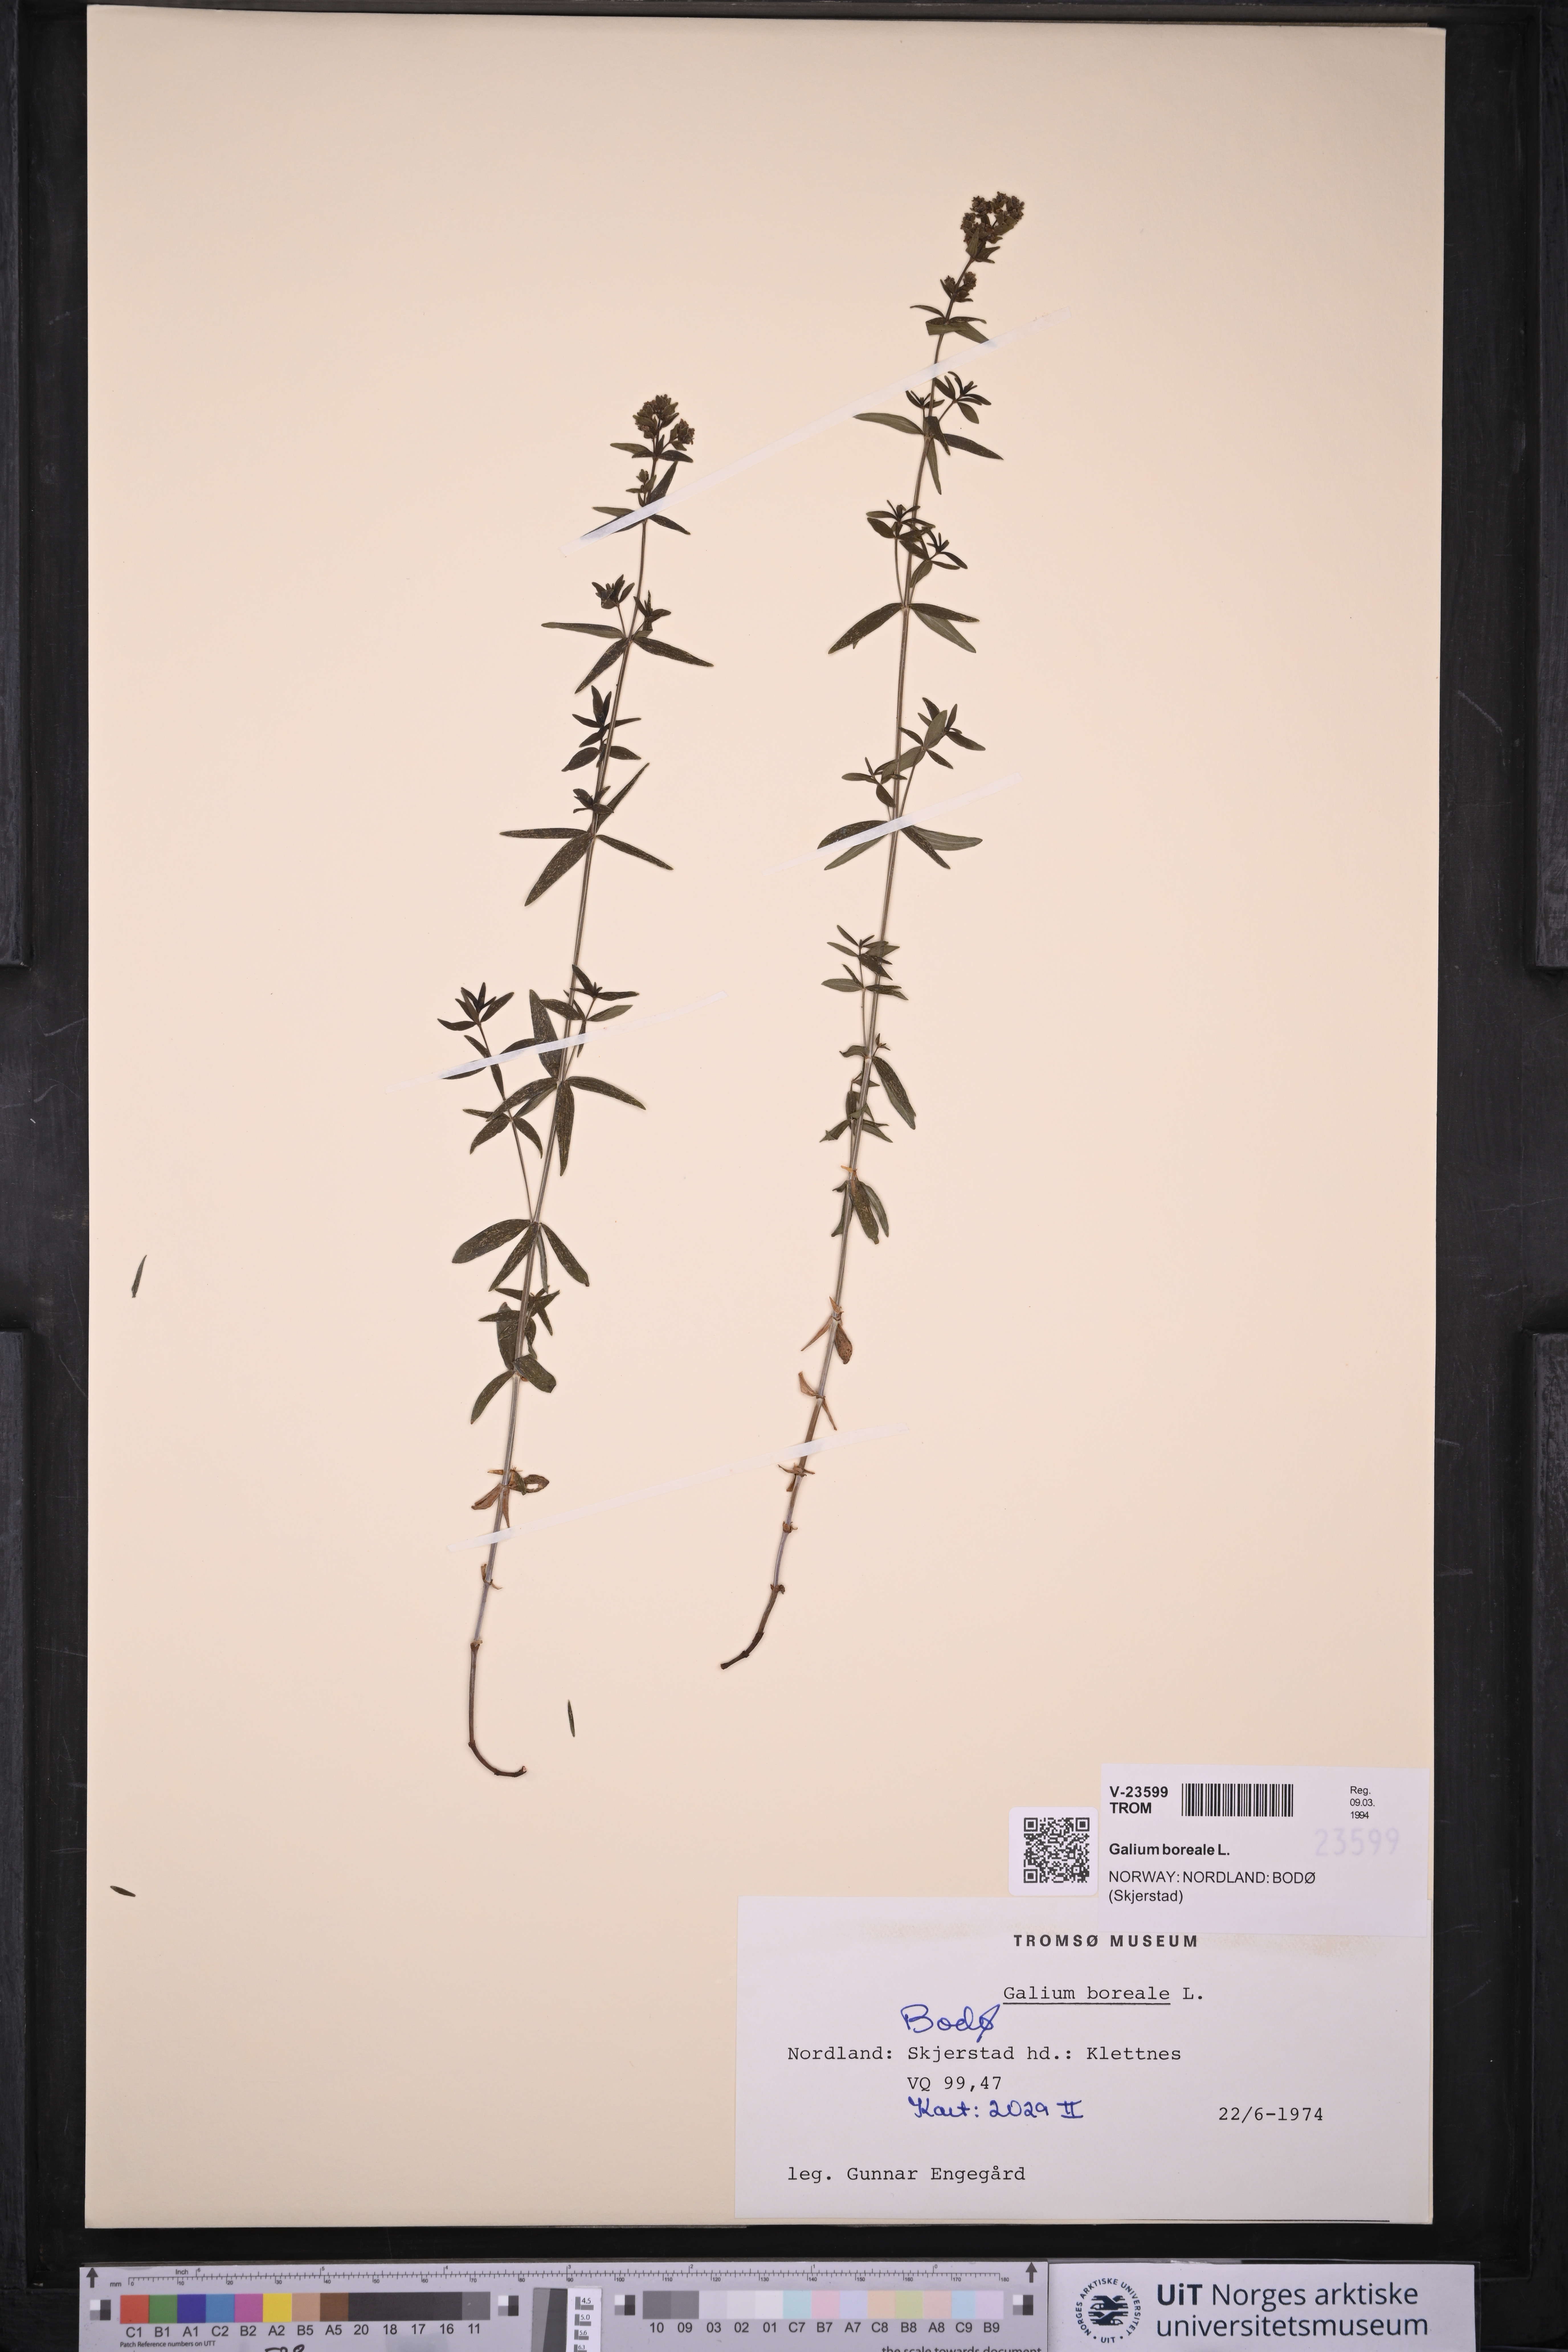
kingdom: Plantae
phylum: Tracheophyta
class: Magnoliopsida
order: Gentianales
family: Rubiaceae
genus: Galium
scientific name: Galium boreale
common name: Northern bedstraw
